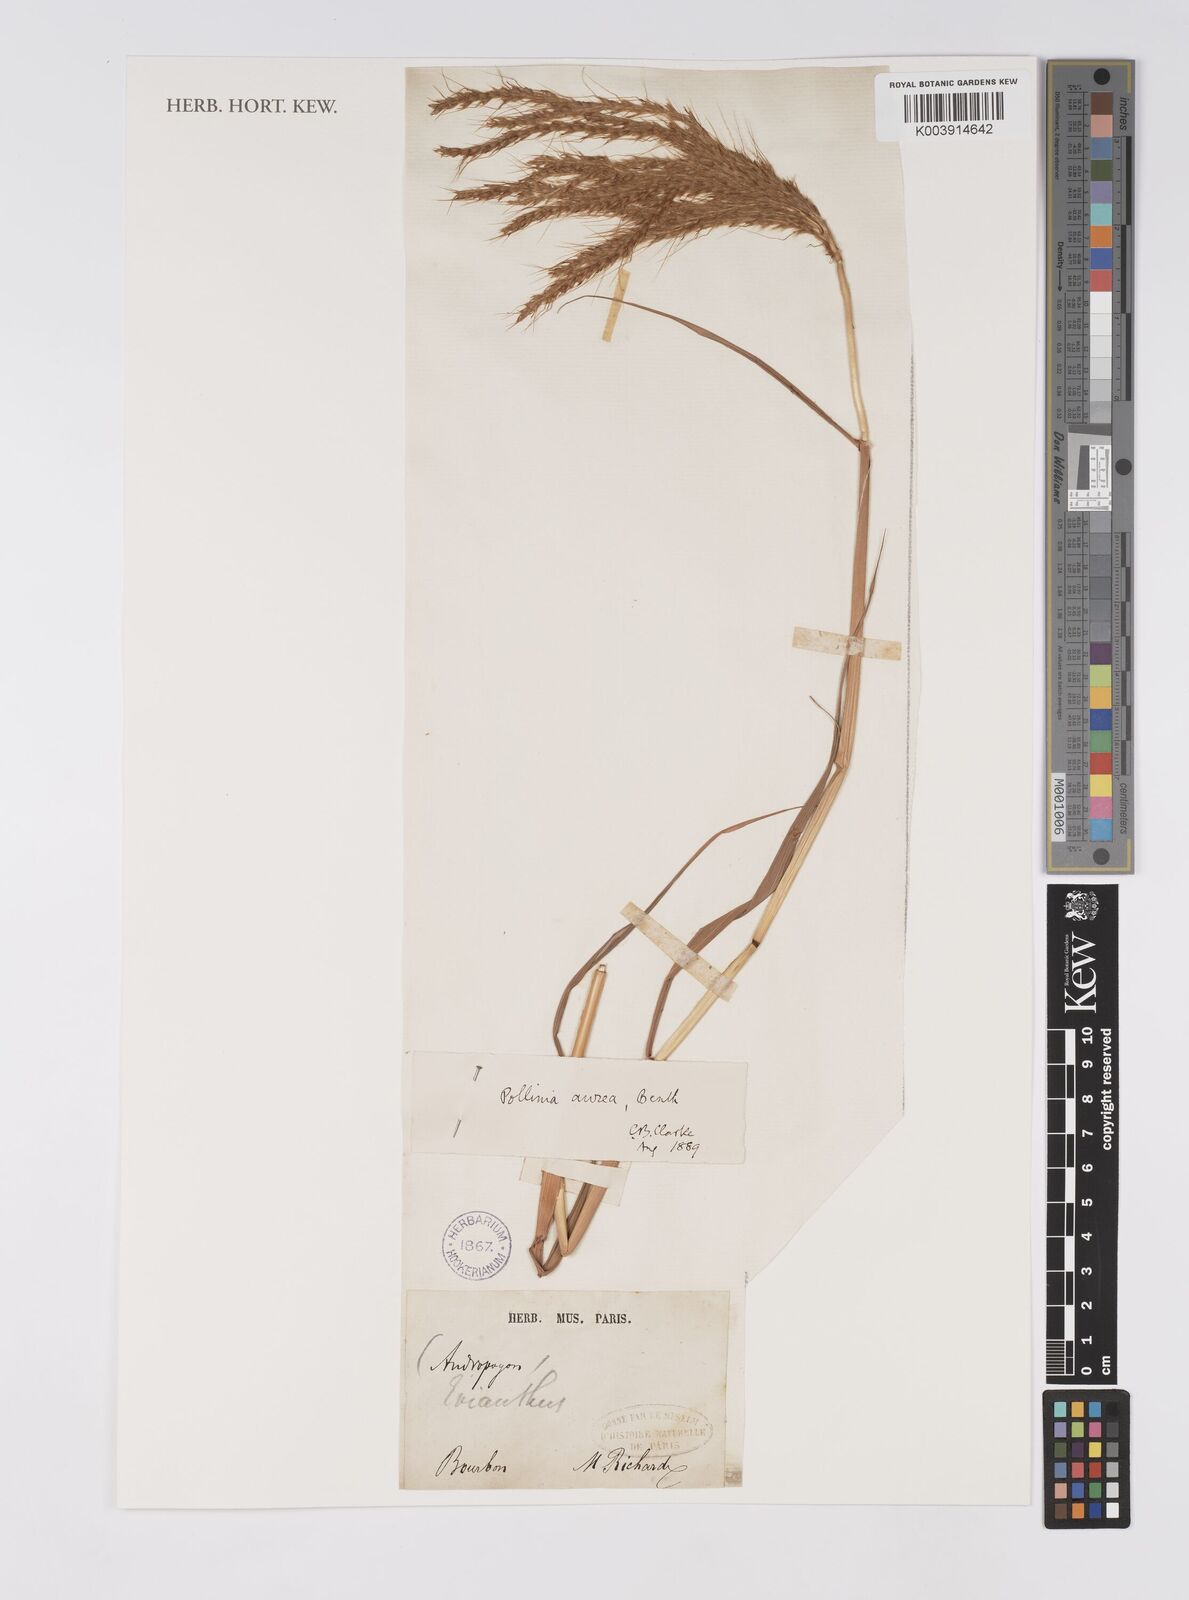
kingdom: Plantae
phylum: Tracheophyta
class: Liliopsida
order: Poales
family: Poaceae
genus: Eulalia
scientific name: Eulalia aurea
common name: Silky browntop
